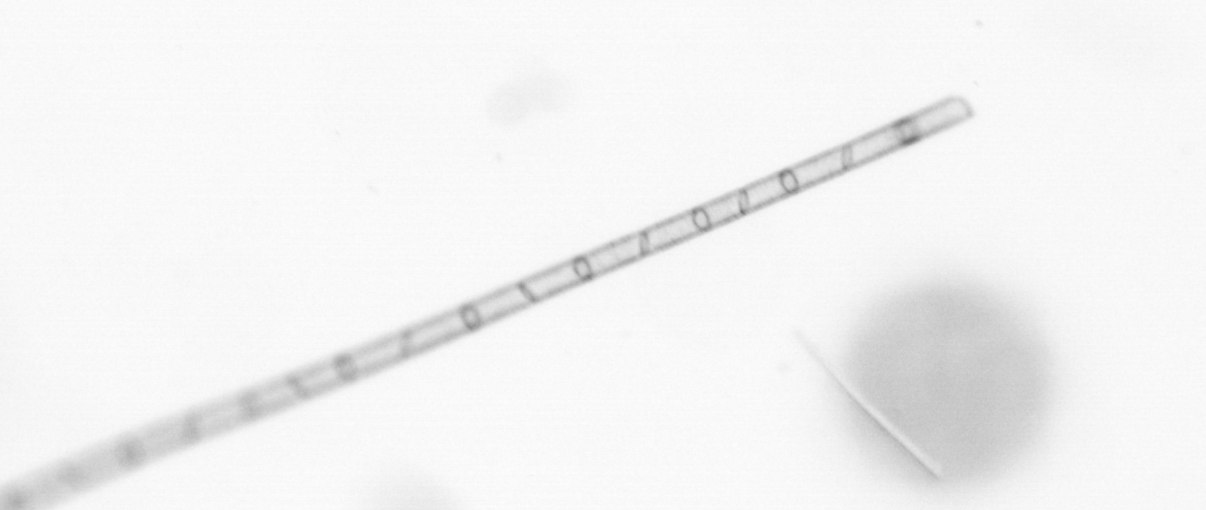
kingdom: Chromista
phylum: Ochrophyta
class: Bacillariophyceae
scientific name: Bacillariophyceae
